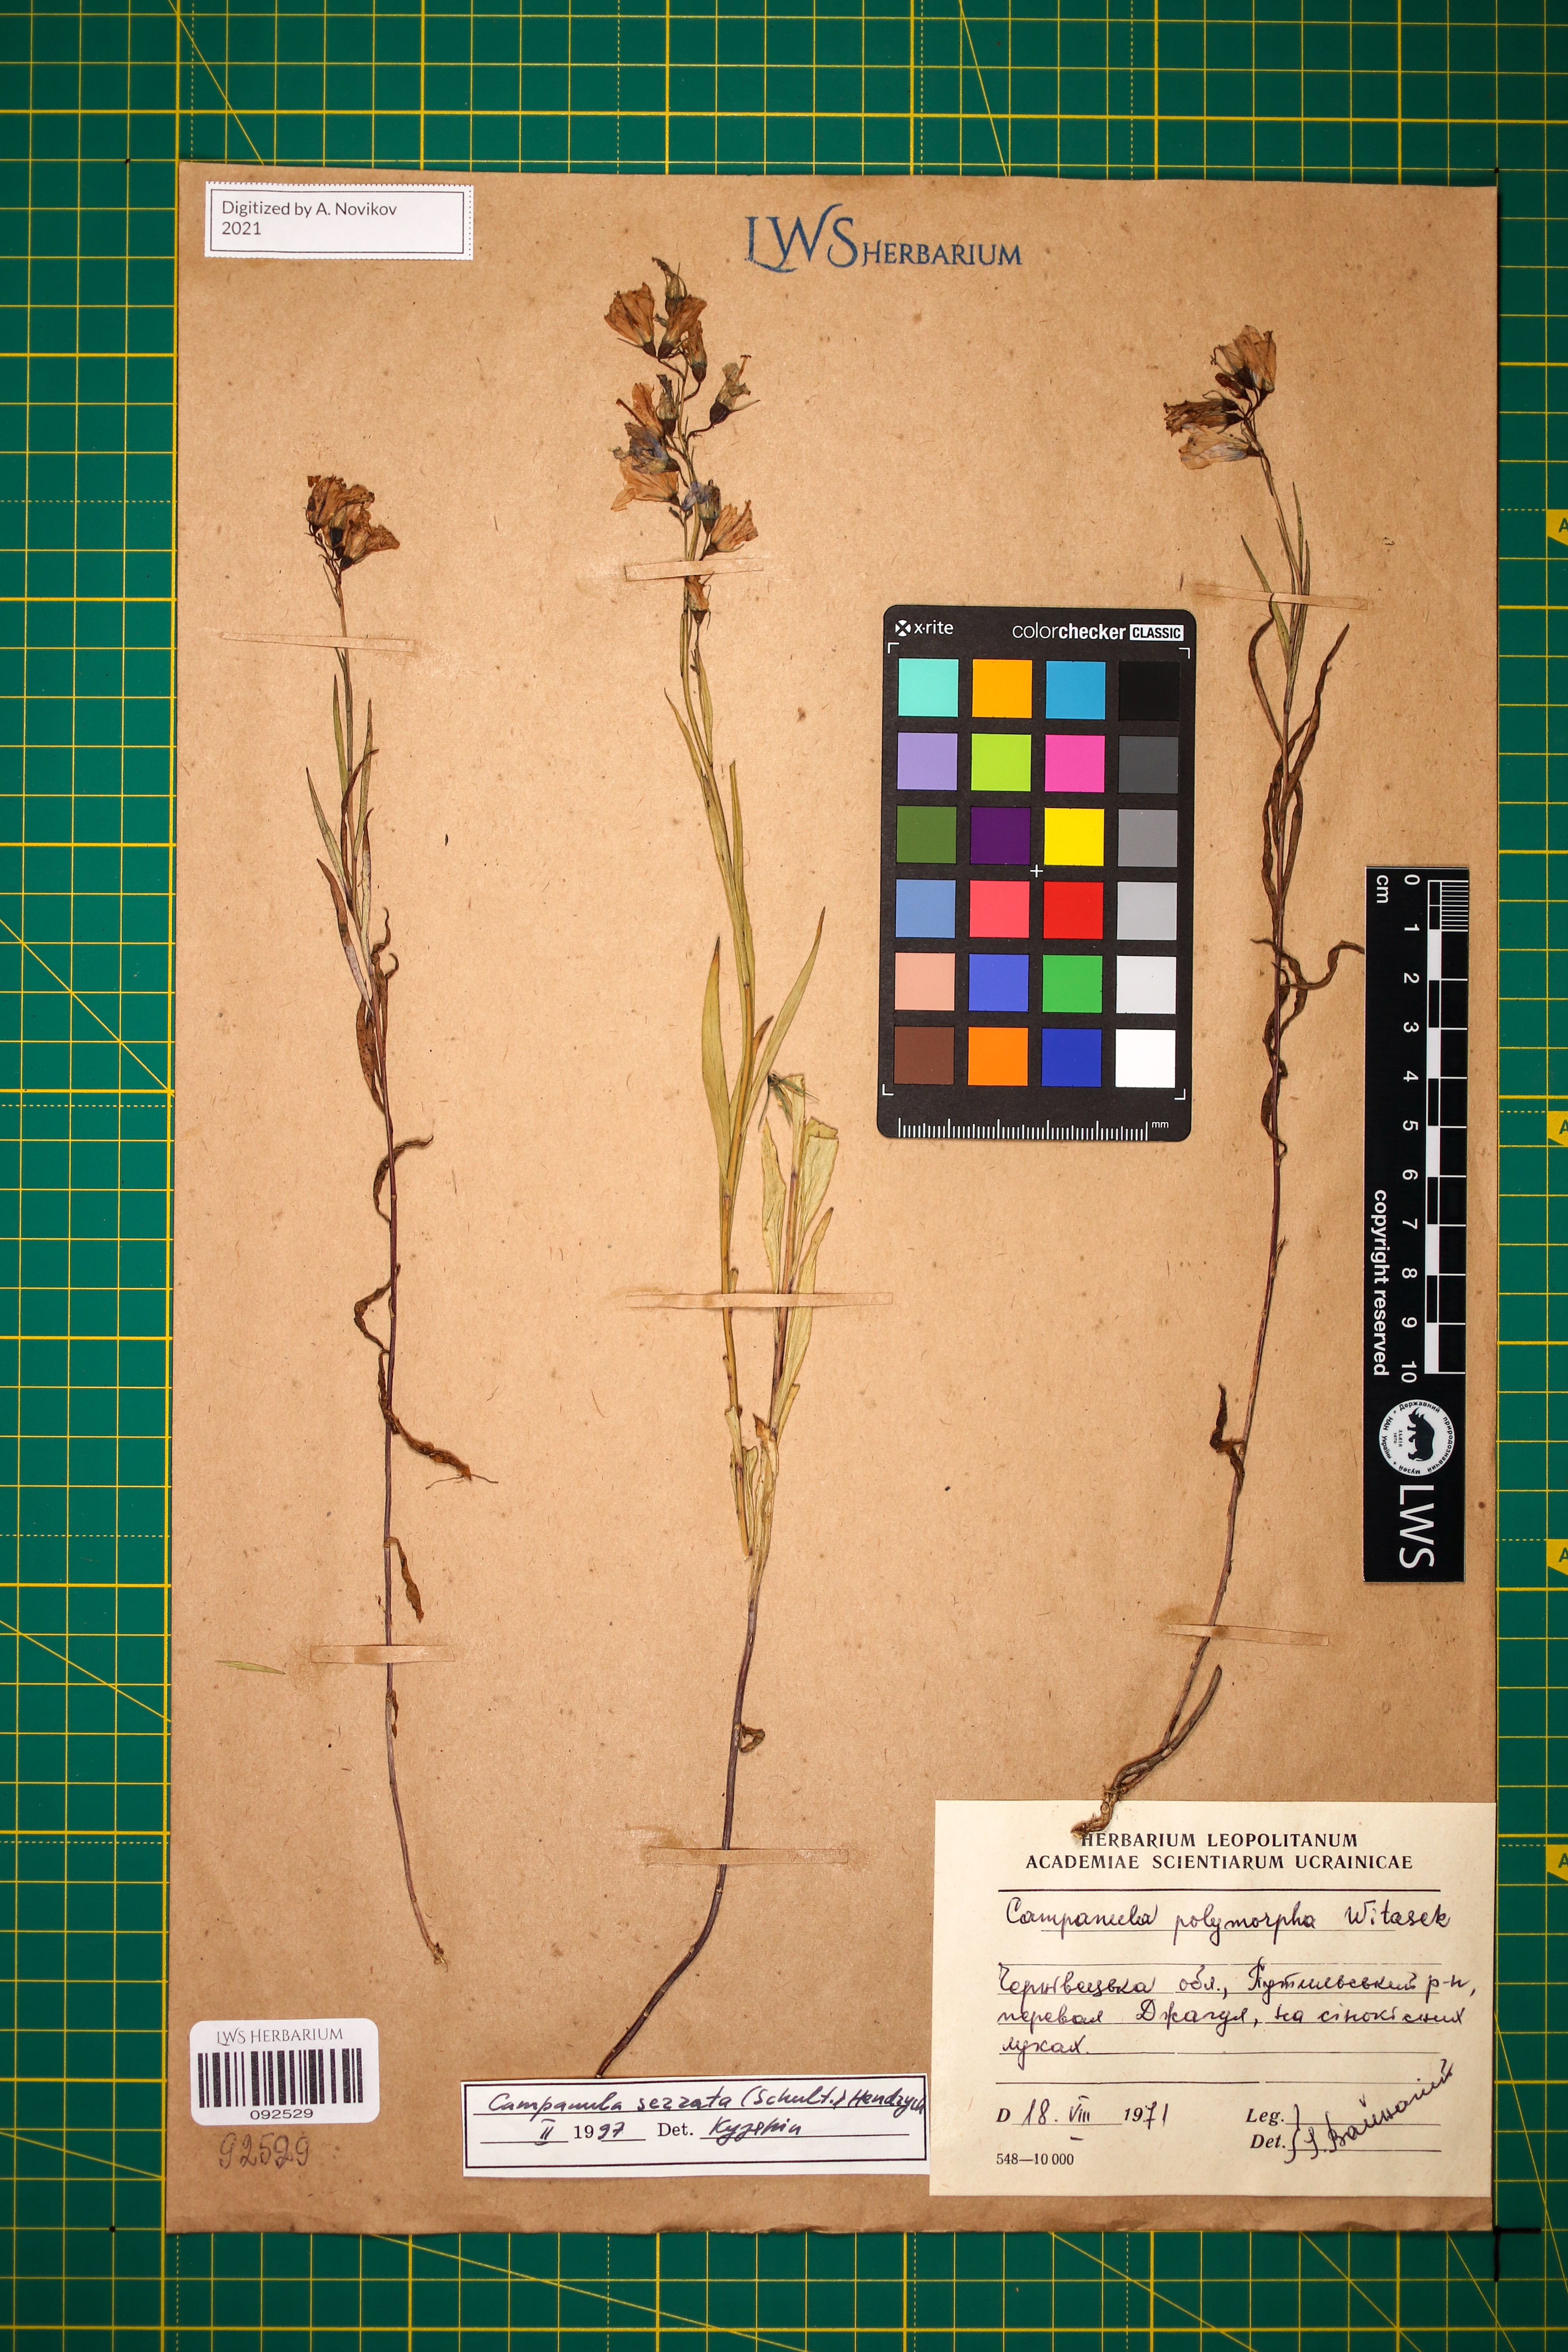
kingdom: Plantae
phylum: Tracheophyta
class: Magnoliopsida
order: Asterales
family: Campanulaceae
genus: Campanula
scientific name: Campanula serrata
